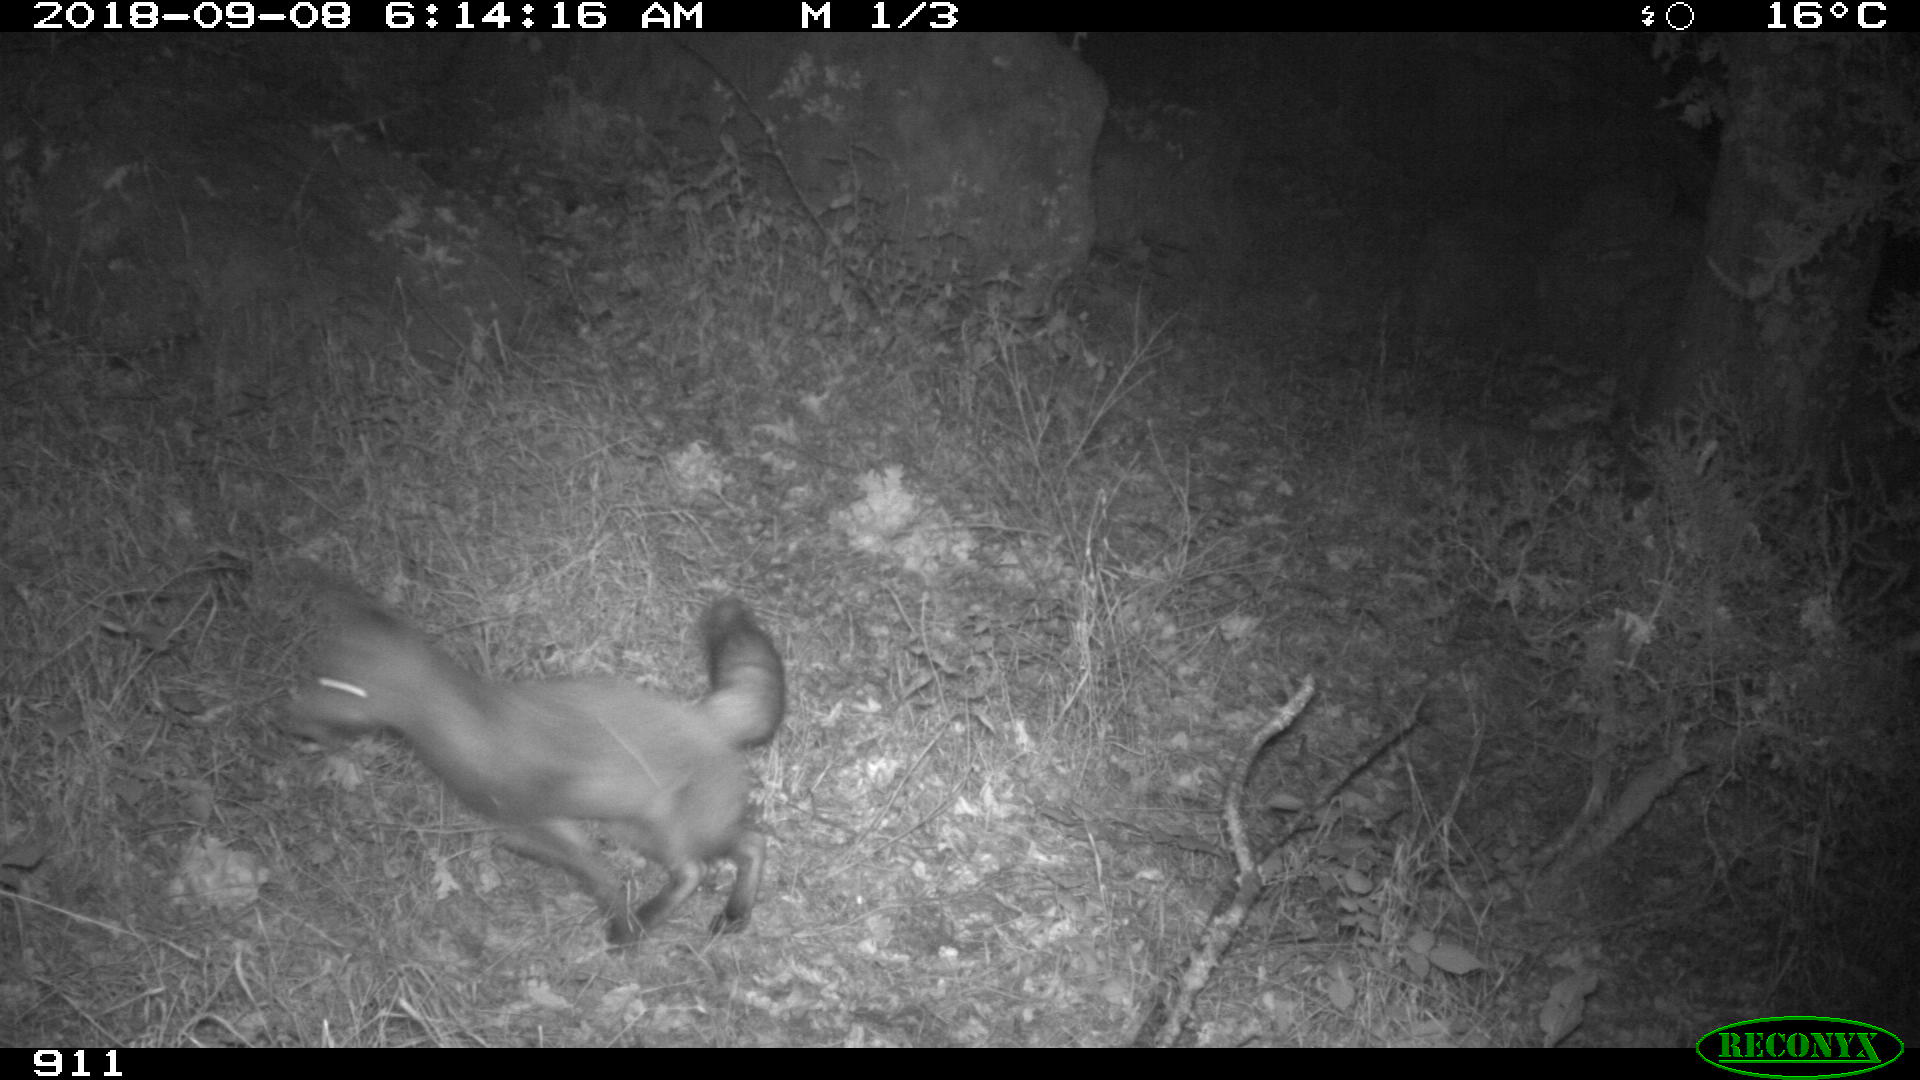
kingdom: Animalia
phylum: Chordata
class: Mammalia
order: Carnivora
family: Canidae
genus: Vulpes
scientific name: Vulpes vulpes
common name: Red fox
